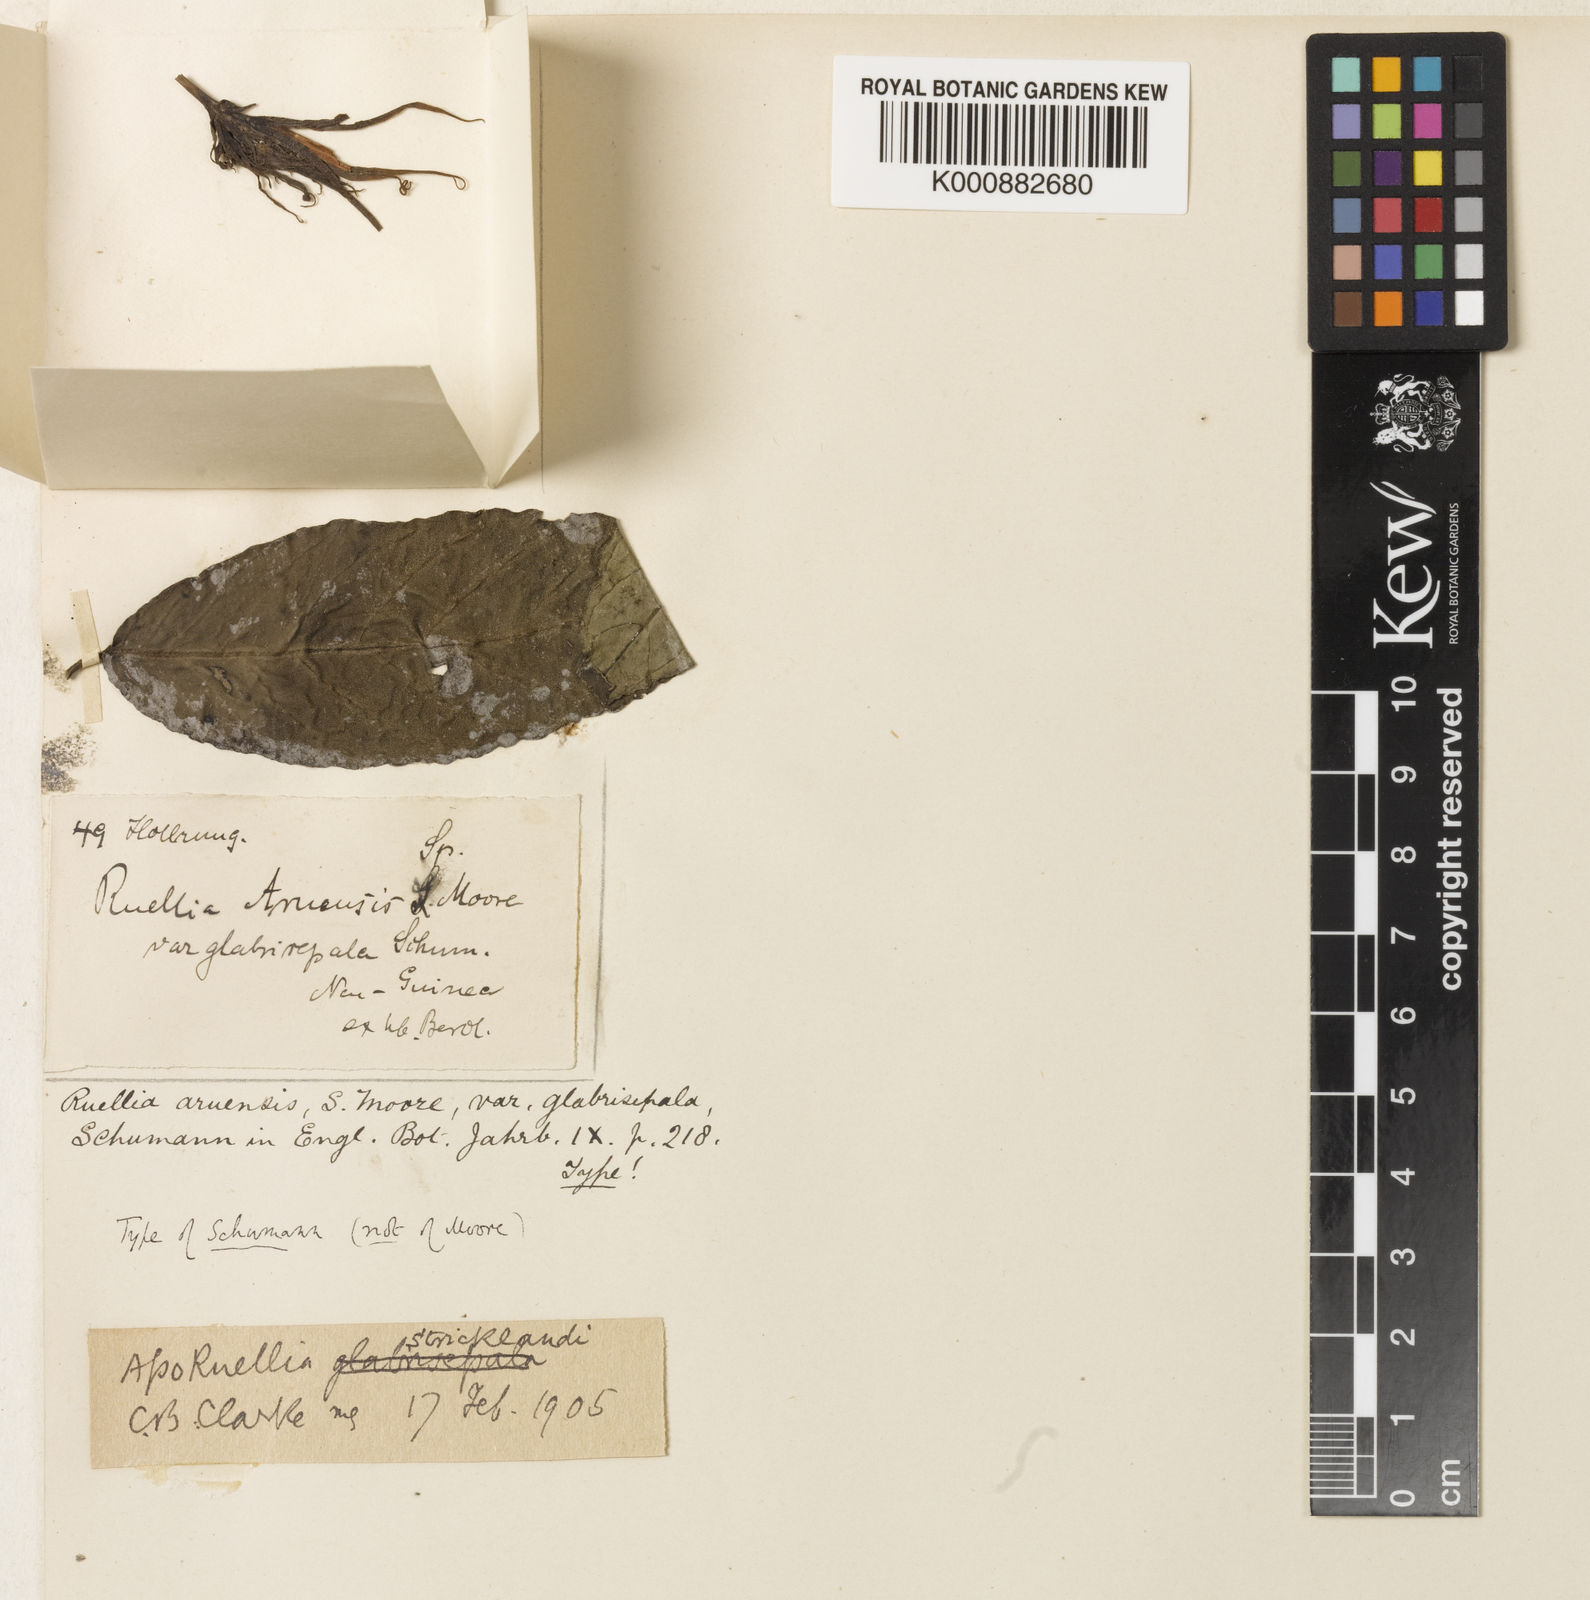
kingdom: Plantae
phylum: Tracheophyta
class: Magnoliopsida
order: Lamiales
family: Acanthaceae
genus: Leptosiphonium
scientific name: Leptosiphonium stricklandii
